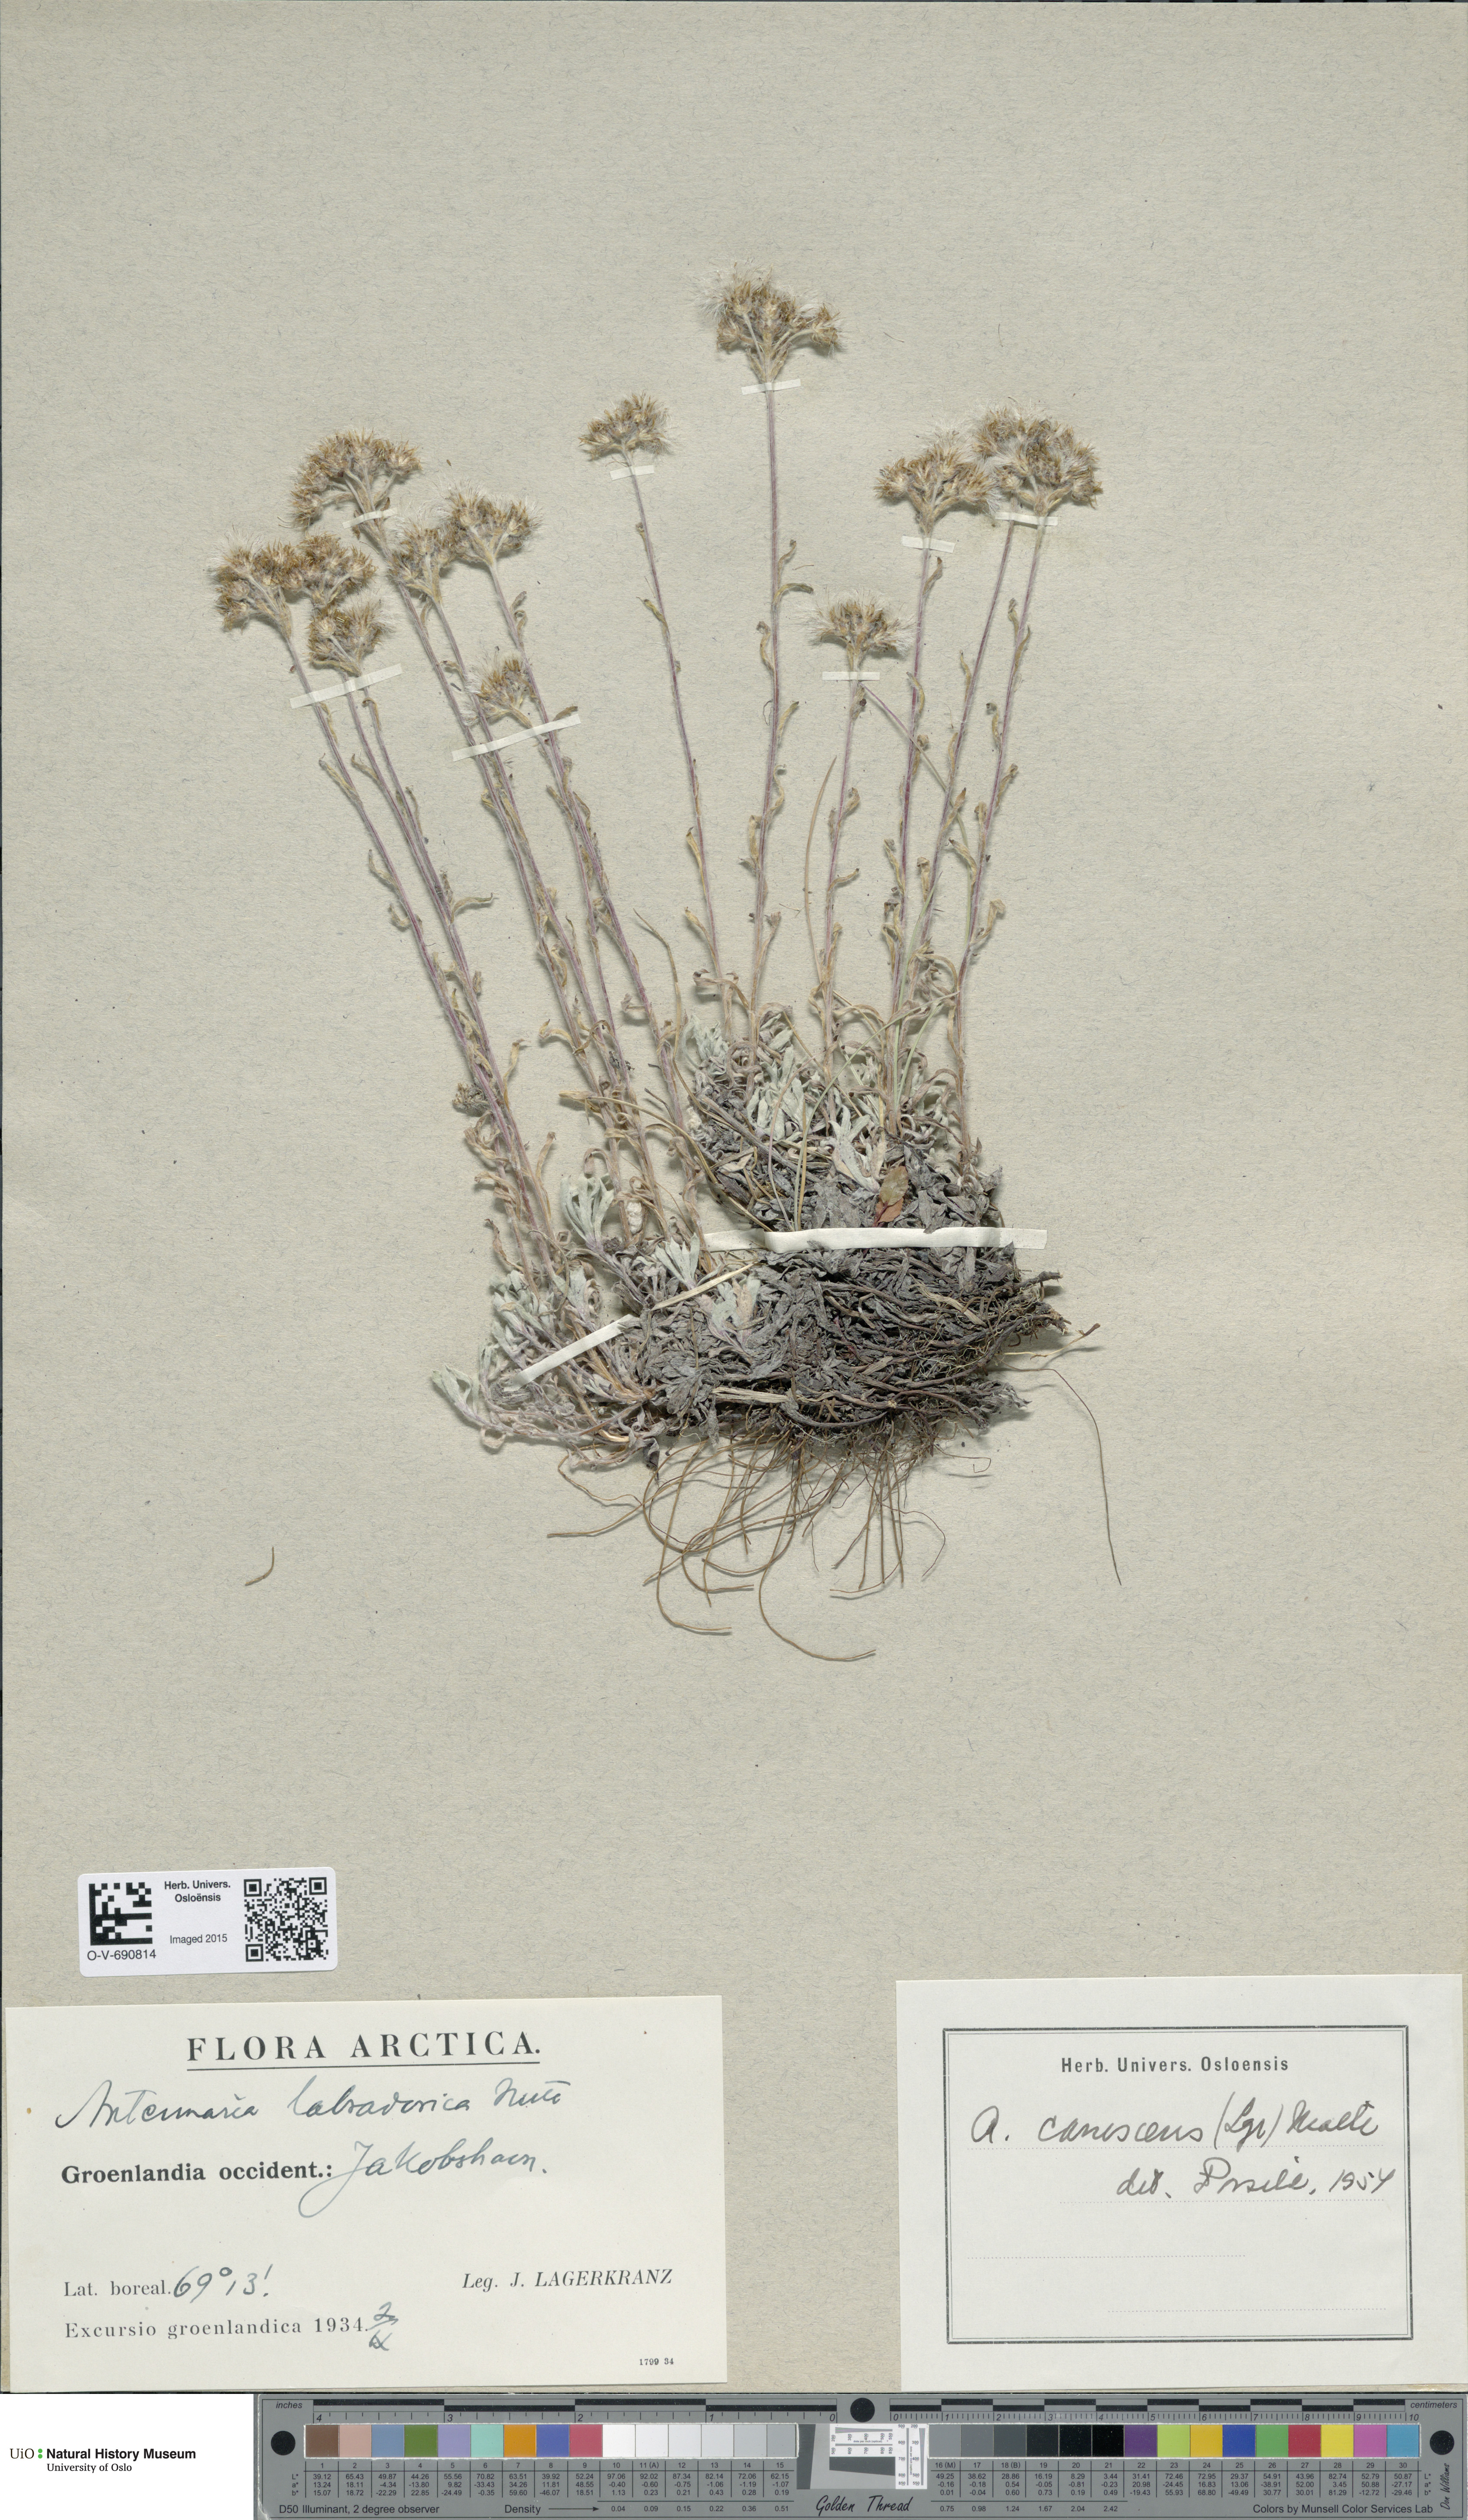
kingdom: Plantae
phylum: Tracheophyta
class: Magnoliopsida
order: Asterales
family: Asteraceae
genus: Antennaria
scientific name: Antennaria canescens
